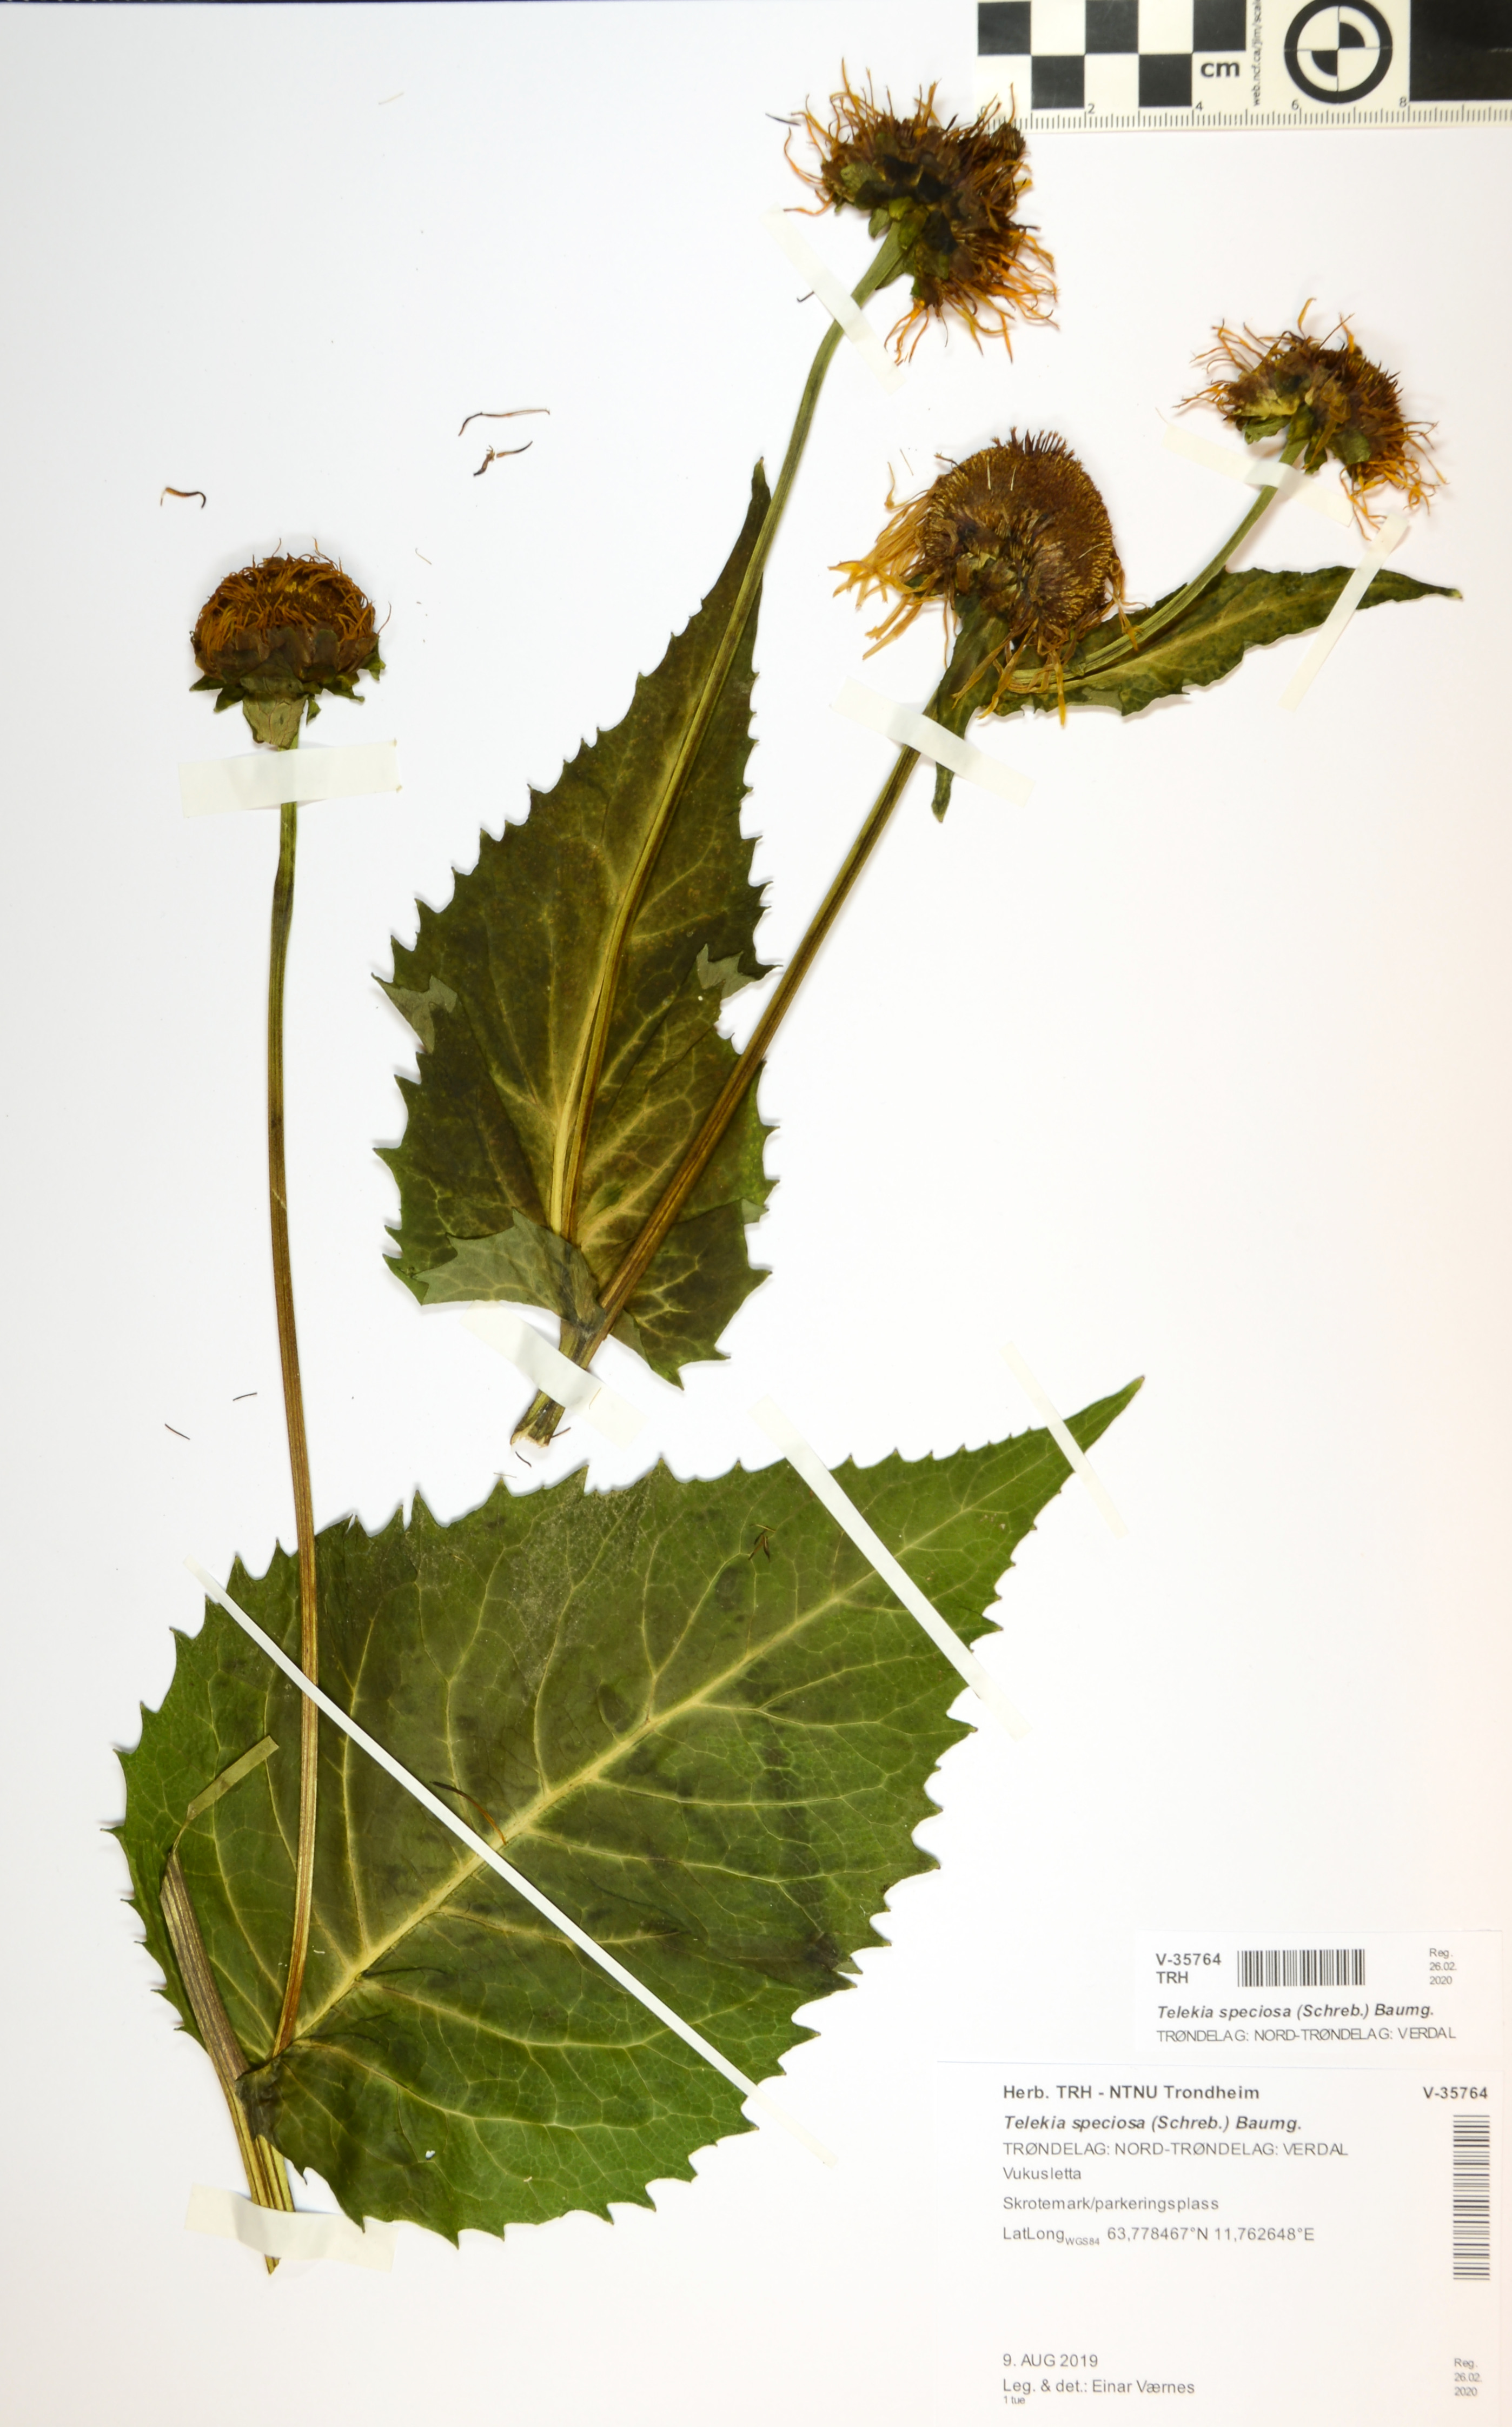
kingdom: Plantae
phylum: Tracheophyta
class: Magnoliopsida
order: Asterales
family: Asteraceae
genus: Telekia
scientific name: Telekia speciosa
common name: Yellow oxeye
